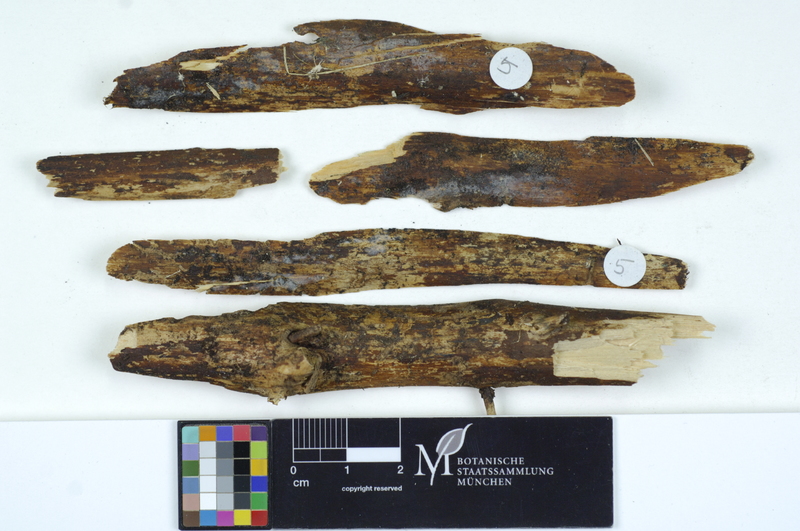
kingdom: Plantae
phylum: Tracheophyta
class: Pinopsida
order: Pinales
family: Pinaceae
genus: Picea
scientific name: Picea
